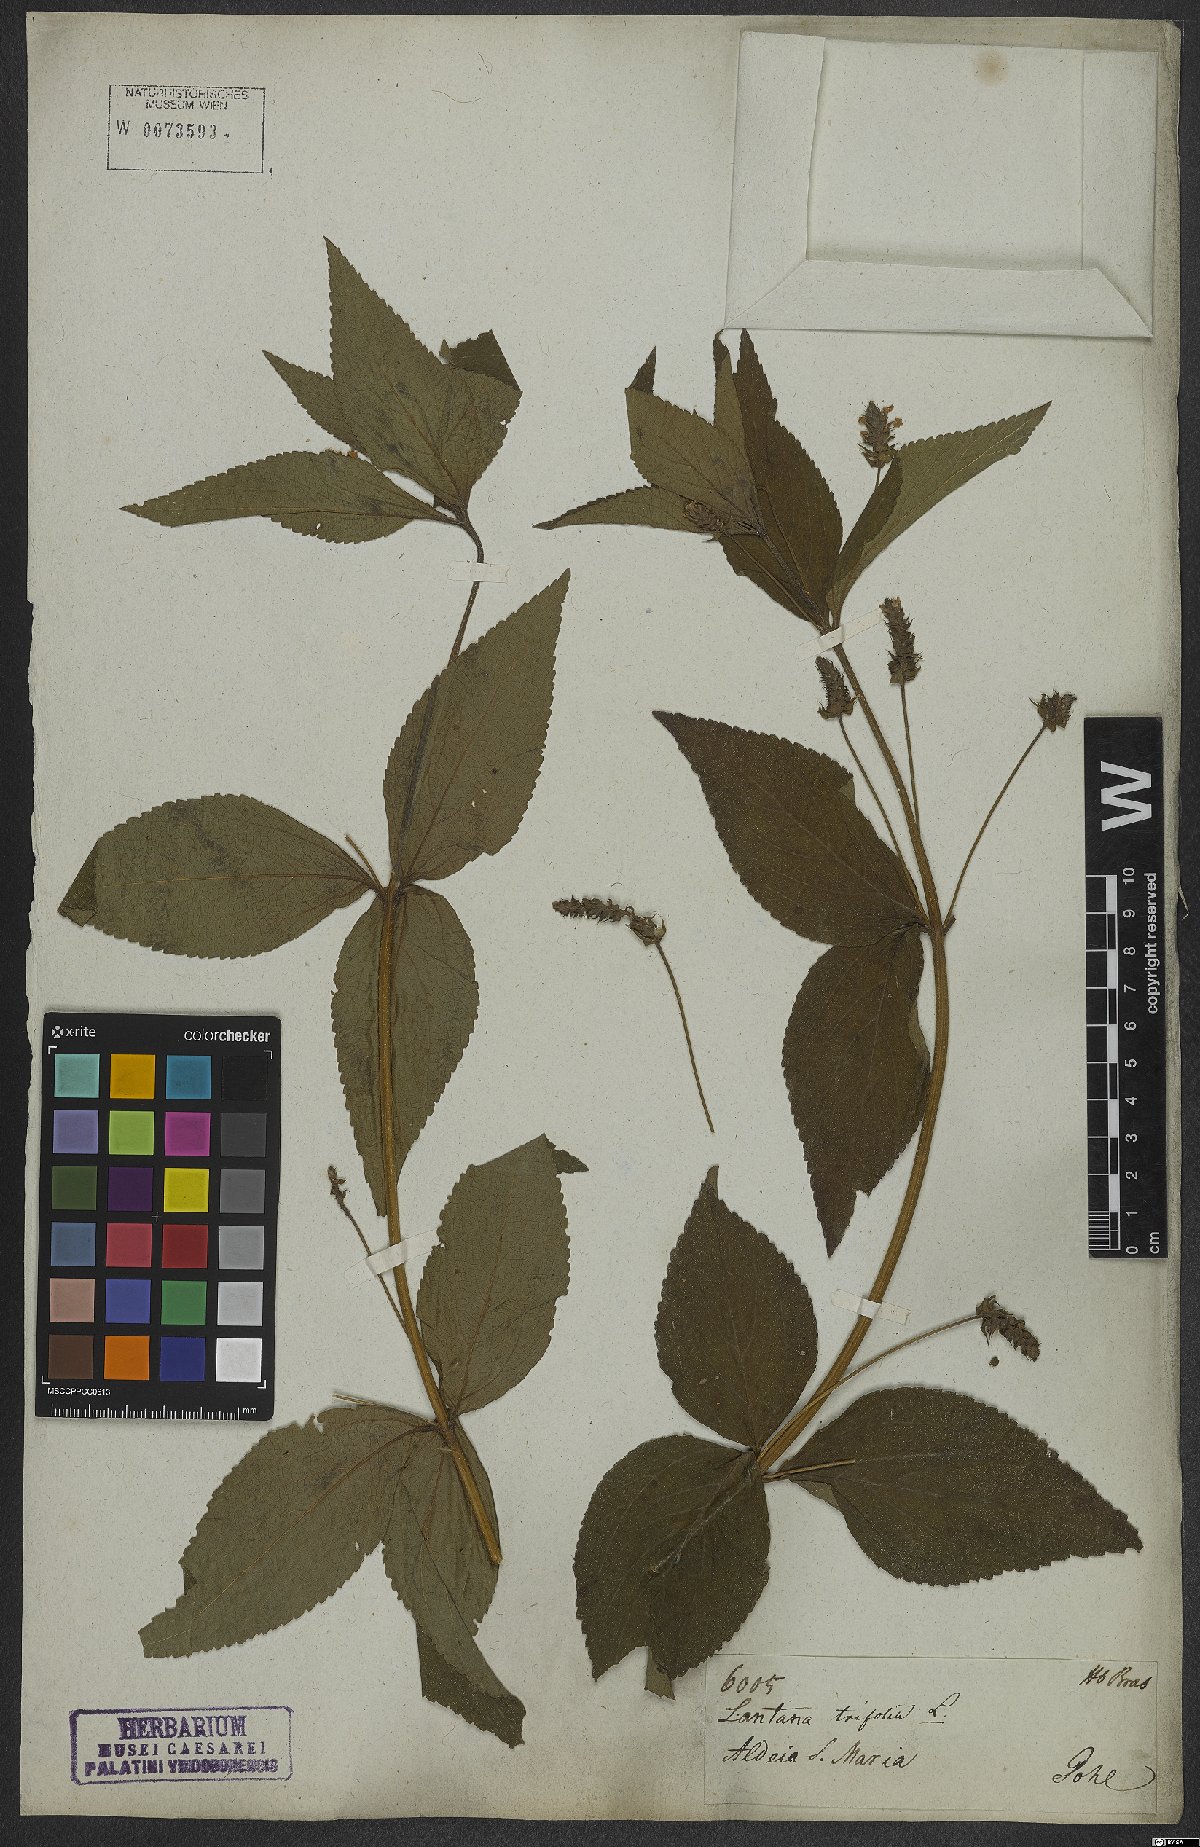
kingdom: Plantae
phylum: Tracheophyta
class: Magnoliopsida
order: Lamiales
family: Verbenaceae
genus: Lantana
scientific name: Lantana trifolia
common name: Sweet-sage
